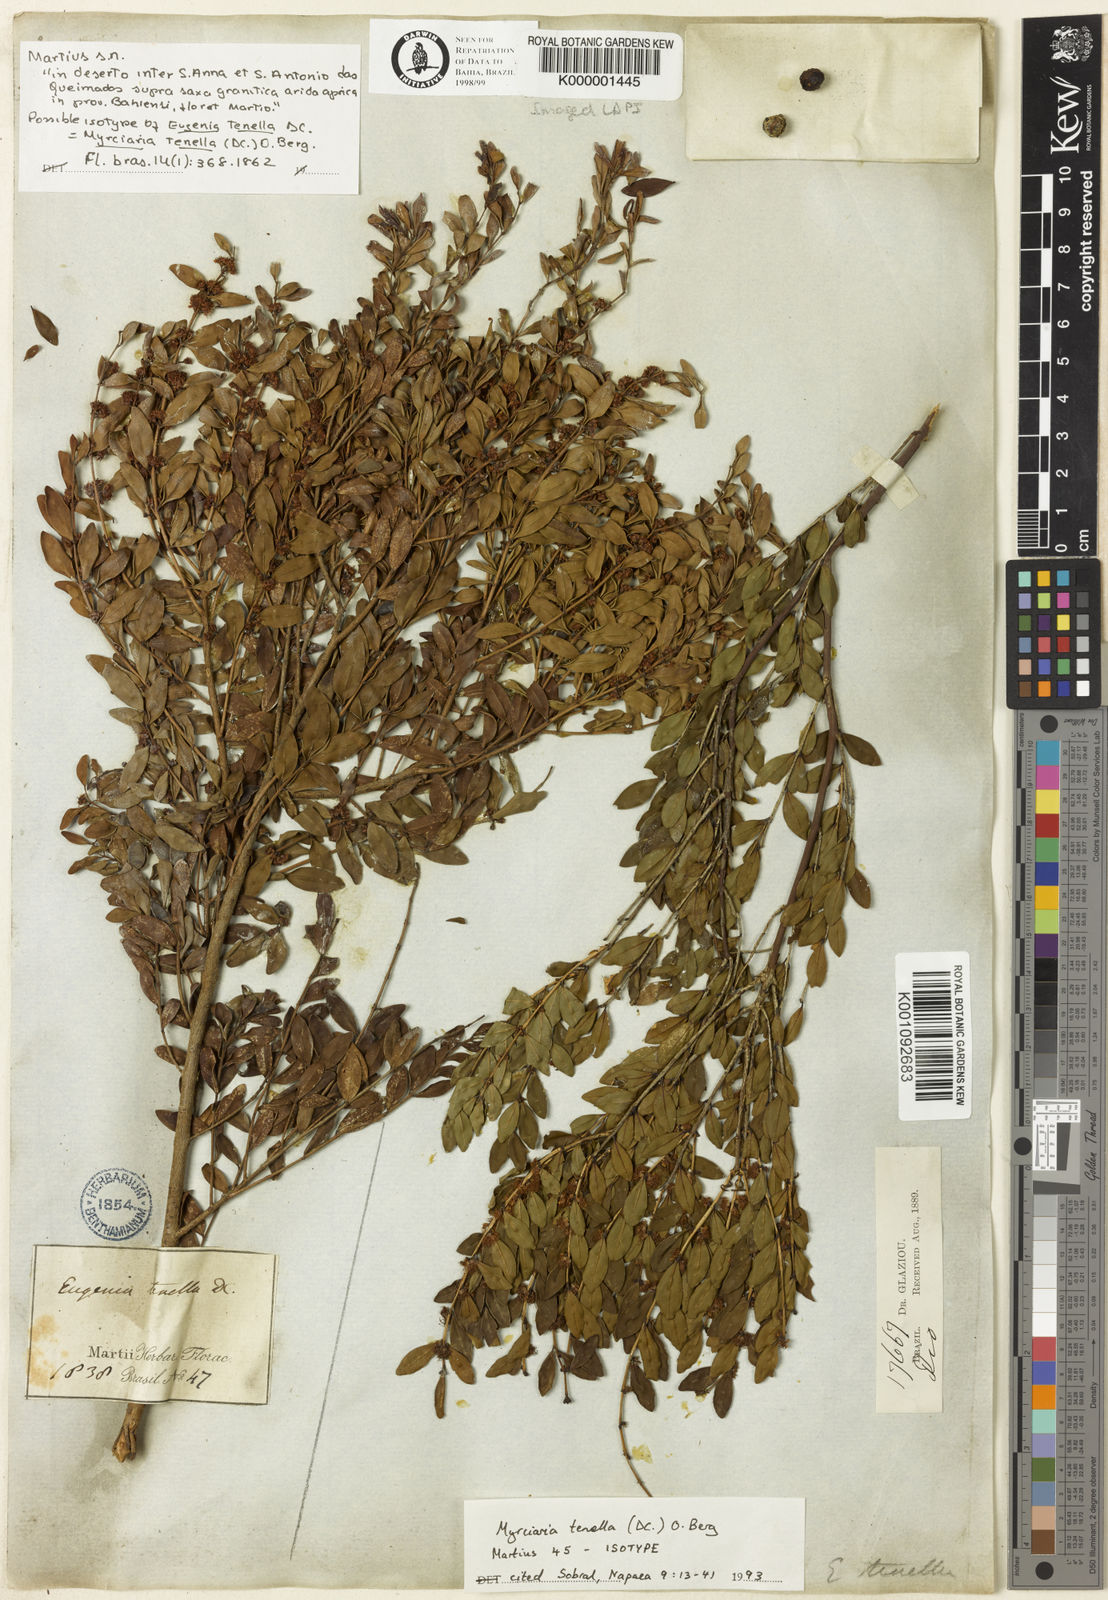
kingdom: Plantae
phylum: Tracheophyta
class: Magnoliopsida
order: Myrtales
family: Myrtaceae
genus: Myrciaria
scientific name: Myrciaria tenella
